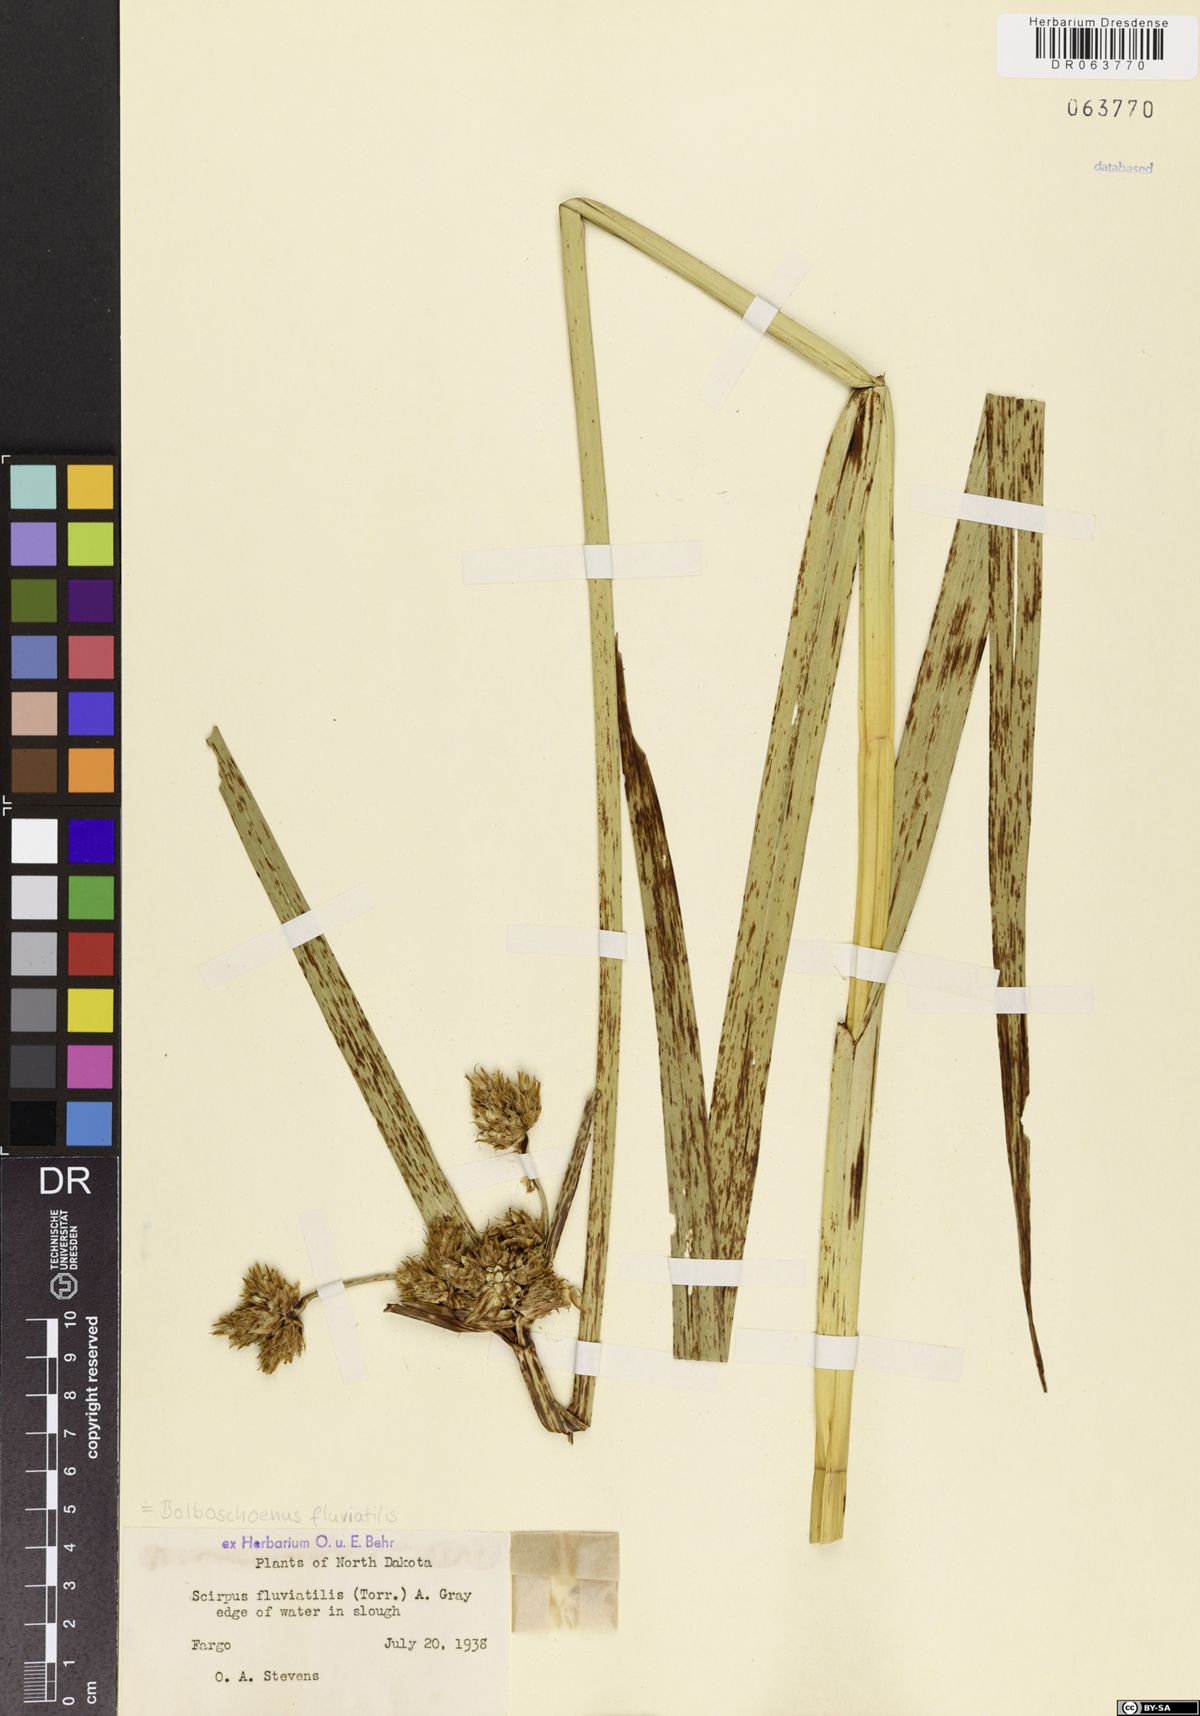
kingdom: Plantae
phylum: Tracheophyta
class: Liliopsida
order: Poales
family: Cyperaceae
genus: Bolboschoenus
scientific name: Bolboschoenus fluviatilis
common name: River bulrush
